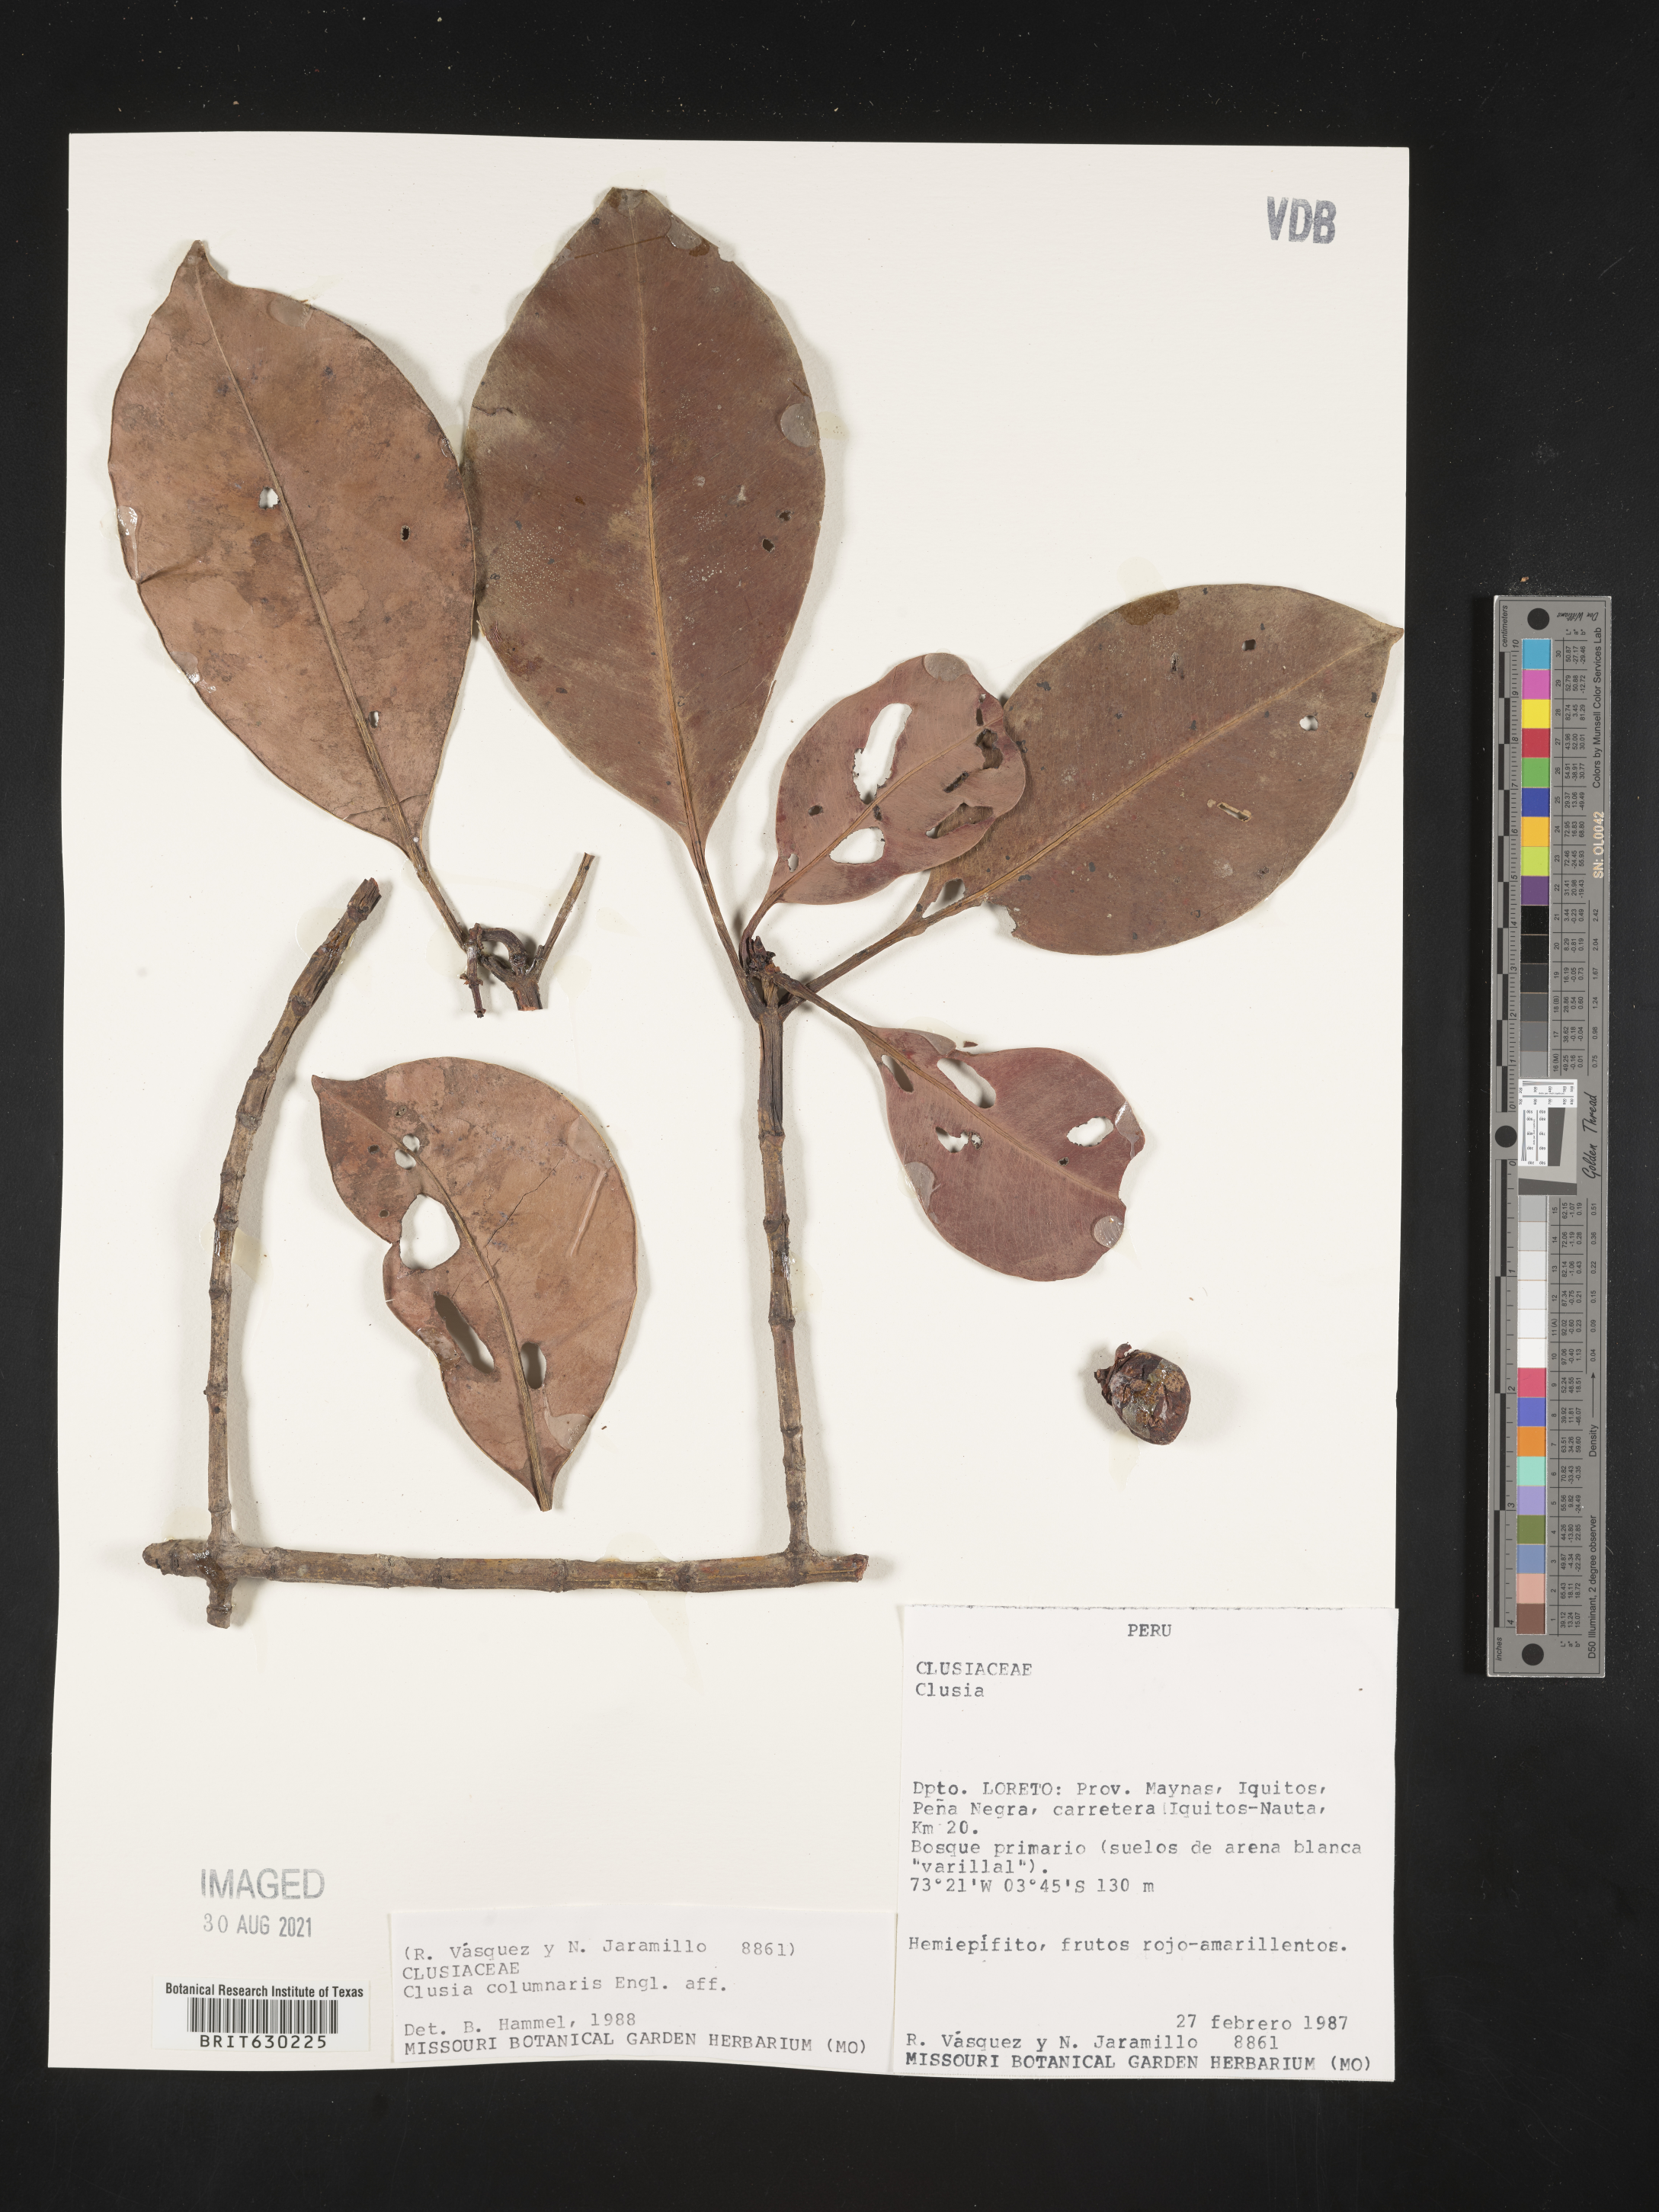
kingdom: Plantae
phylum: Tracheophyta
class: Magnoliopsida
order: Malpighiales
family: Clusiaceae
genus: Clusia
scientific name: Clusia columnaris
